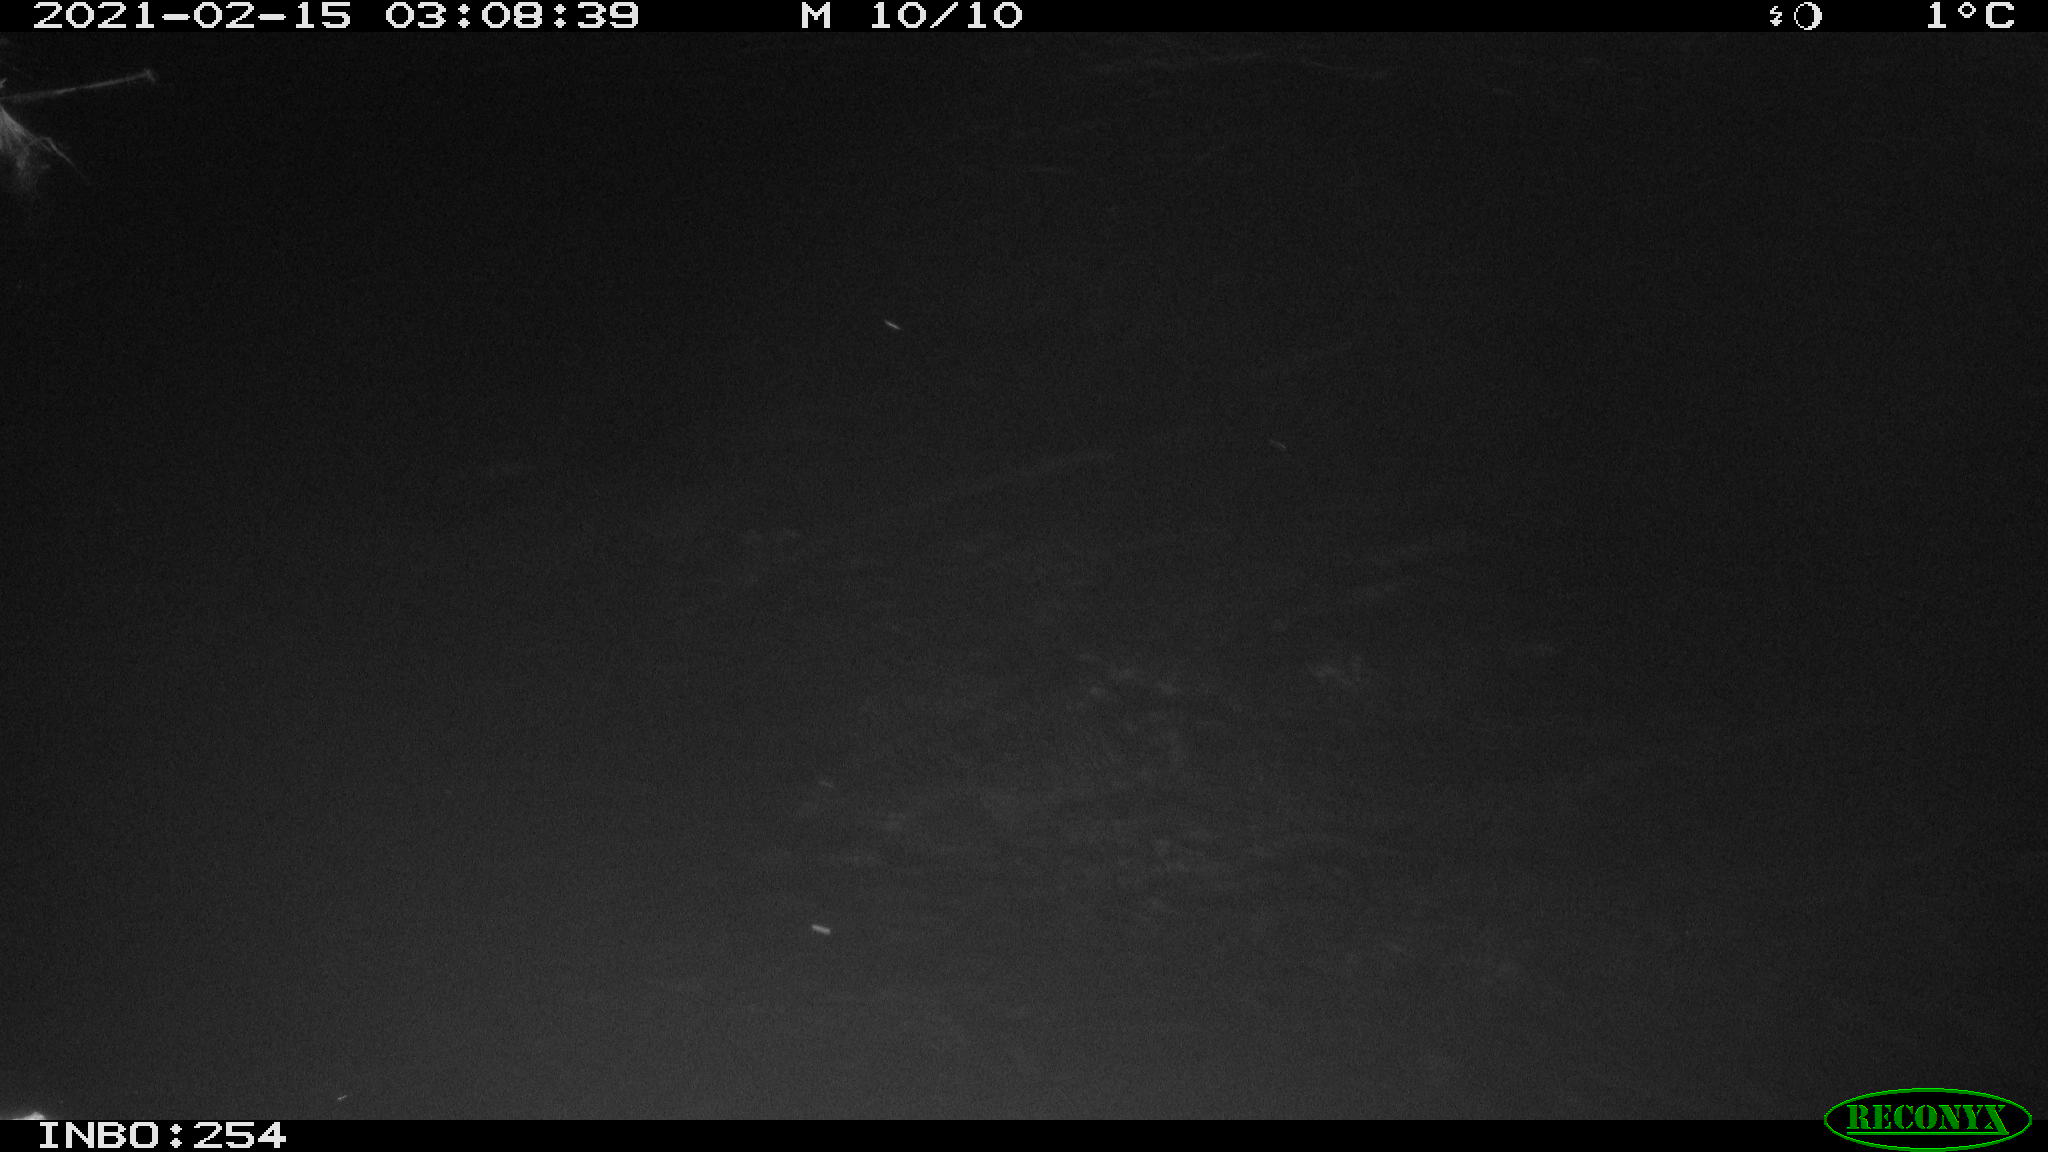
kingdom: Animalia
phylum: Chordata
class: Aves
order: Anseriformes
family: Anatidae
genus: Anas
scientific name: Anas platyrhynchos
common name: Mallard
